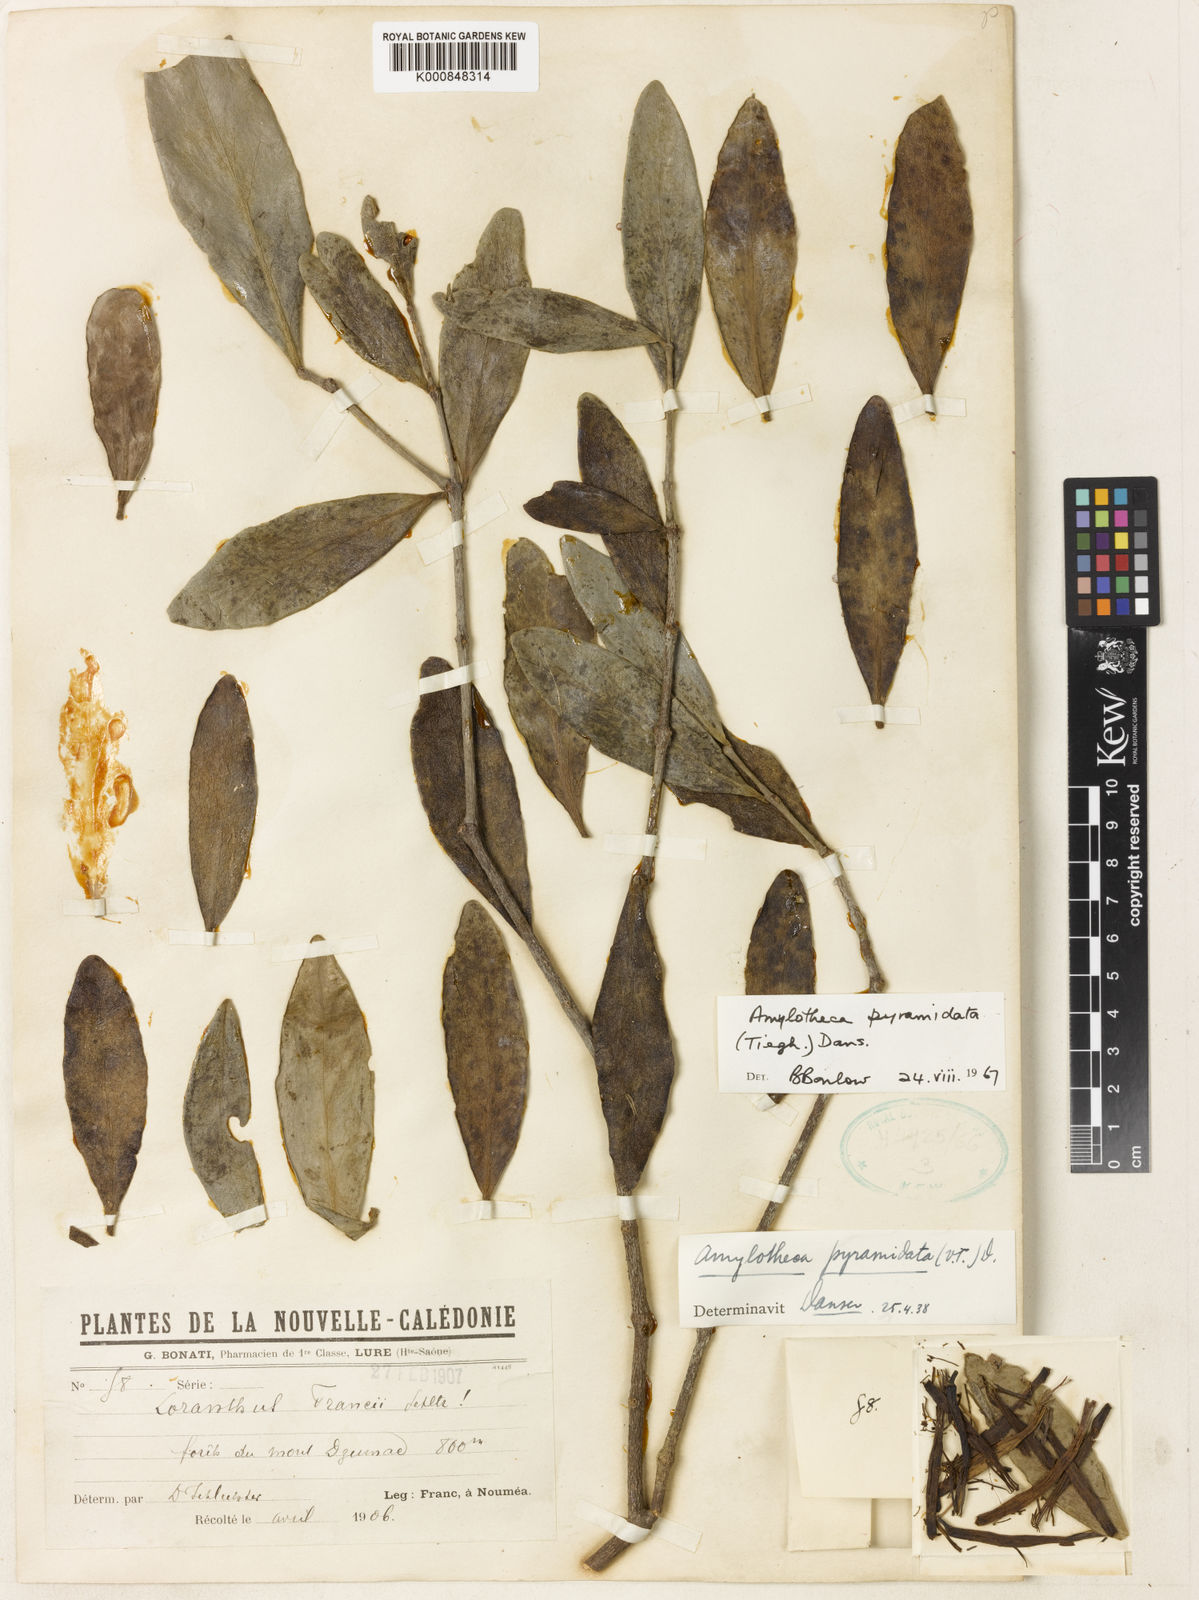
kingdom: Plantae
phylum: Tracheophyta
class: Magnoliopsida
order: Santalales
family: Loranthaceae
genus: Amylotheca
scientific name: Amylotheca dictyophleba
